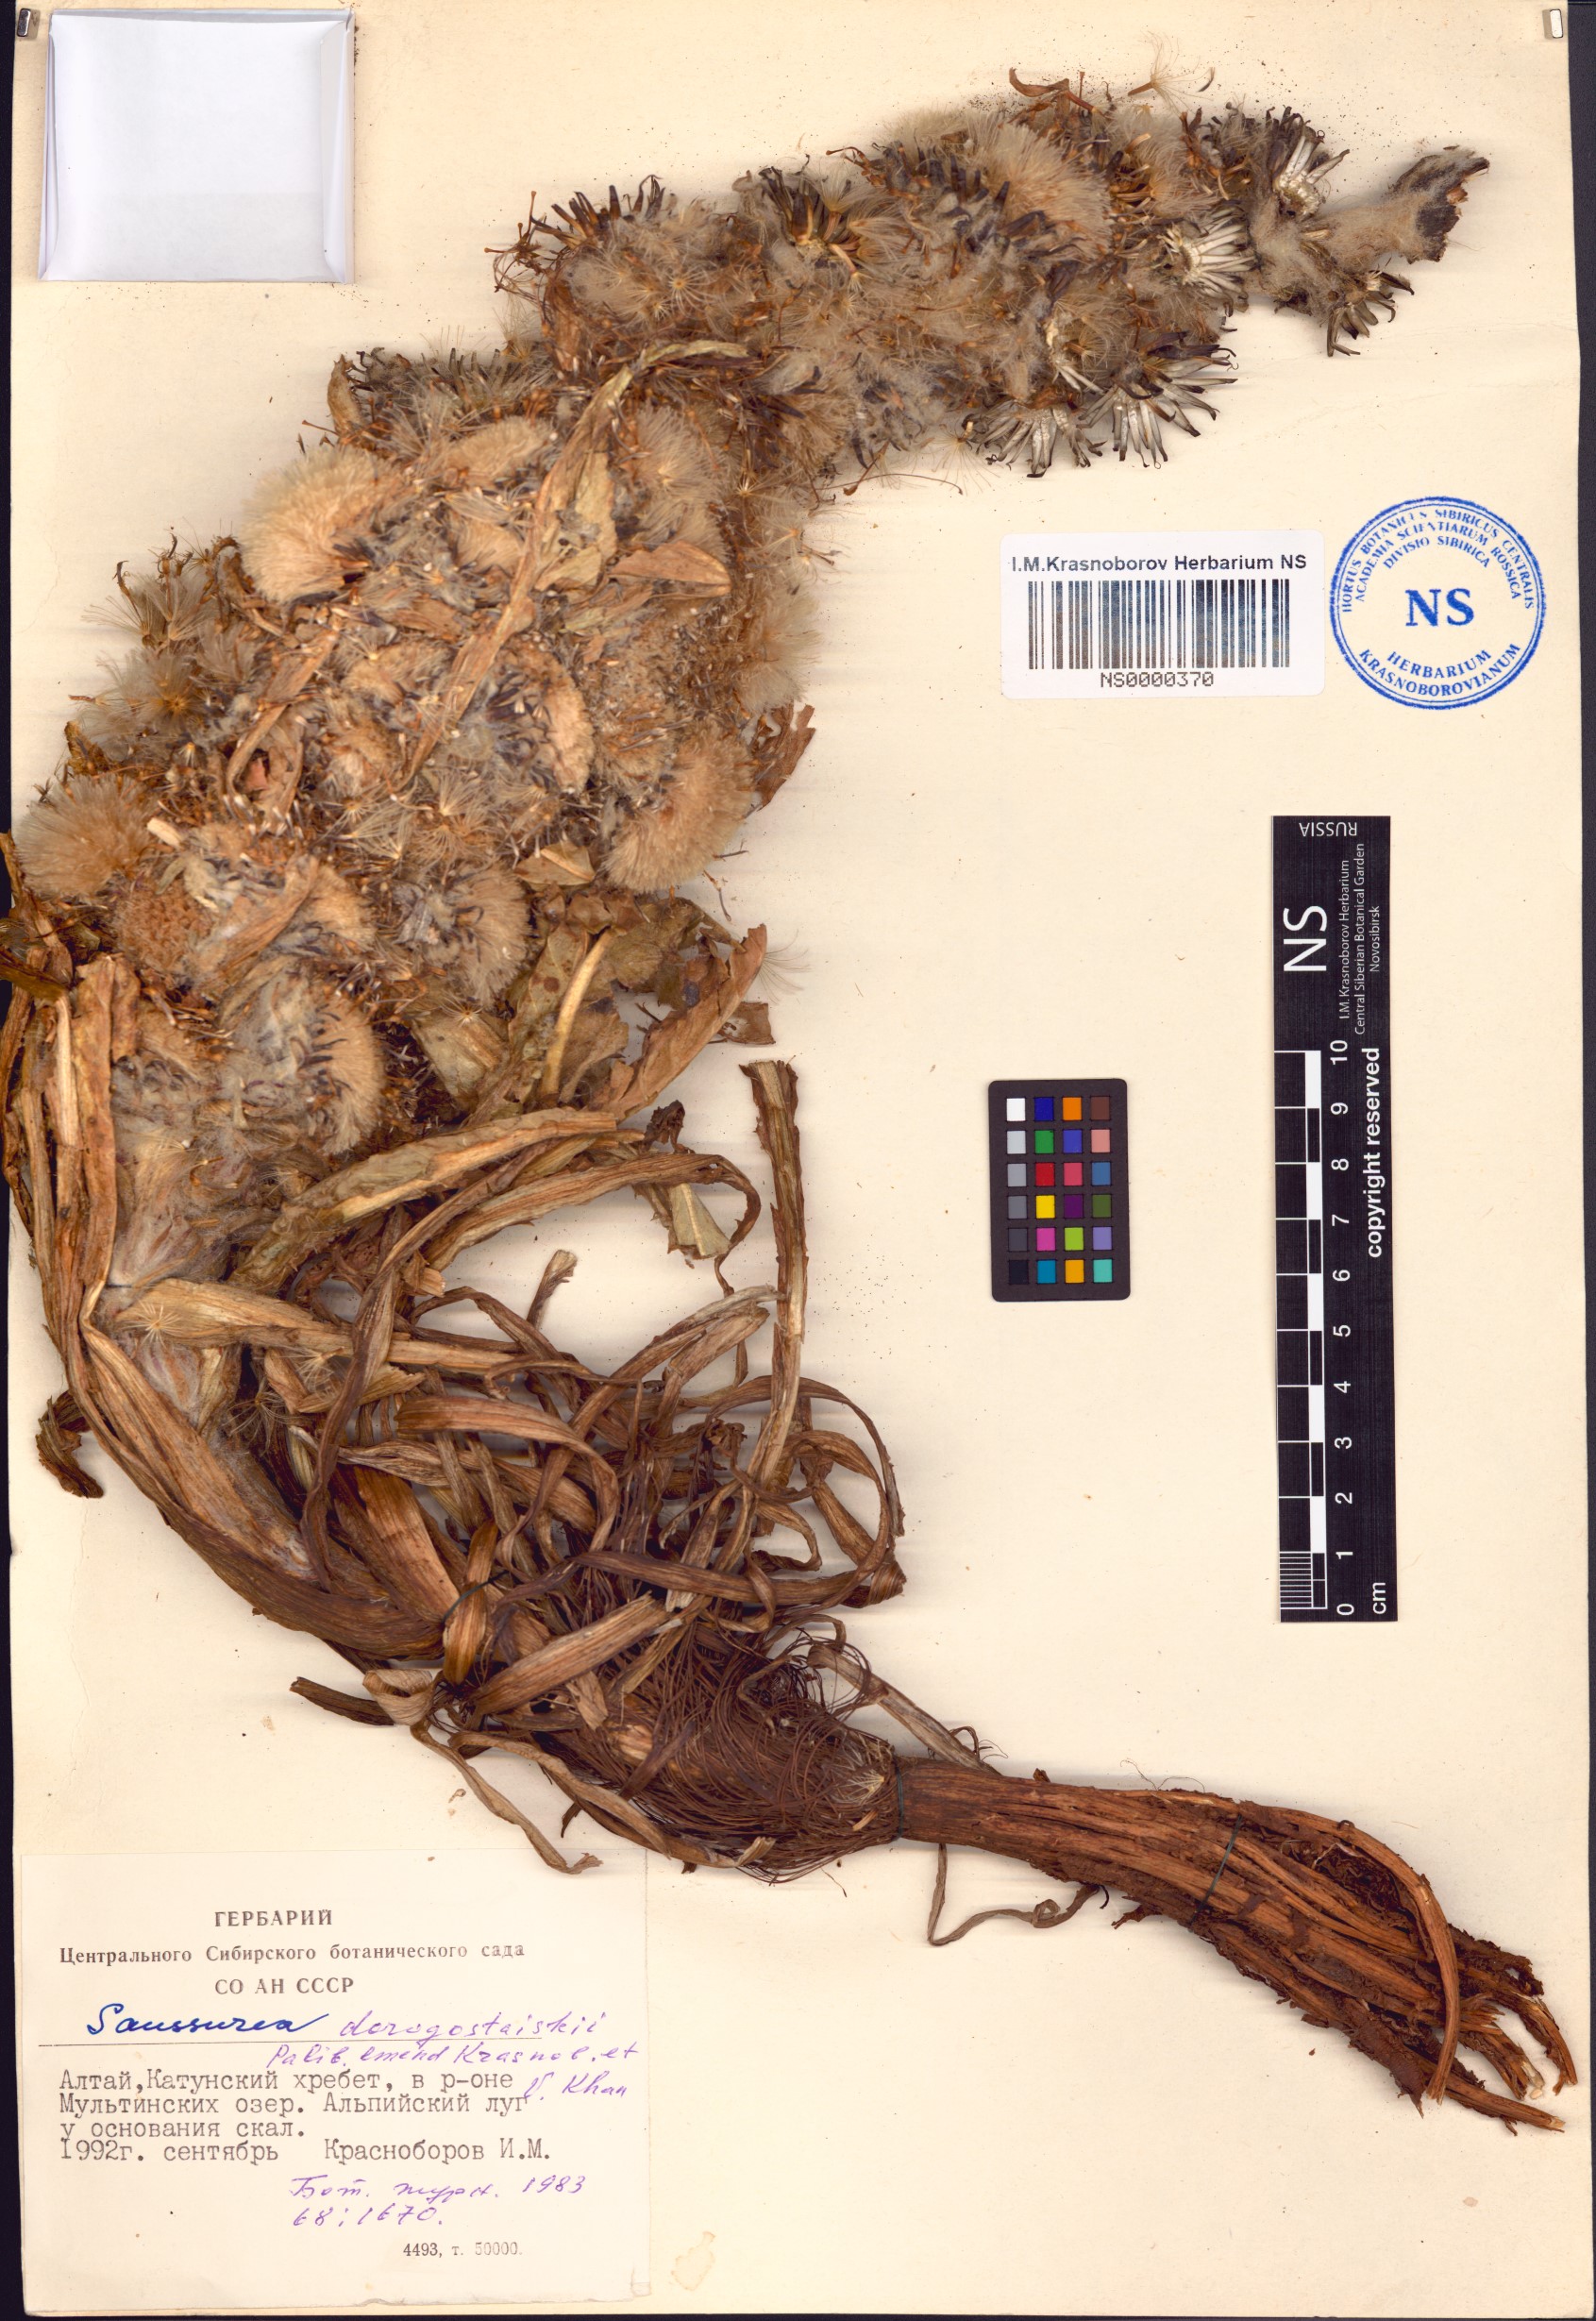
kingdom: Plantae
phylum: Tracheophyta
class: Magnoliopsida
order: Asterales
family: Asteraceae
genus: Saussurea
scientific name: Saussurea involucrata
